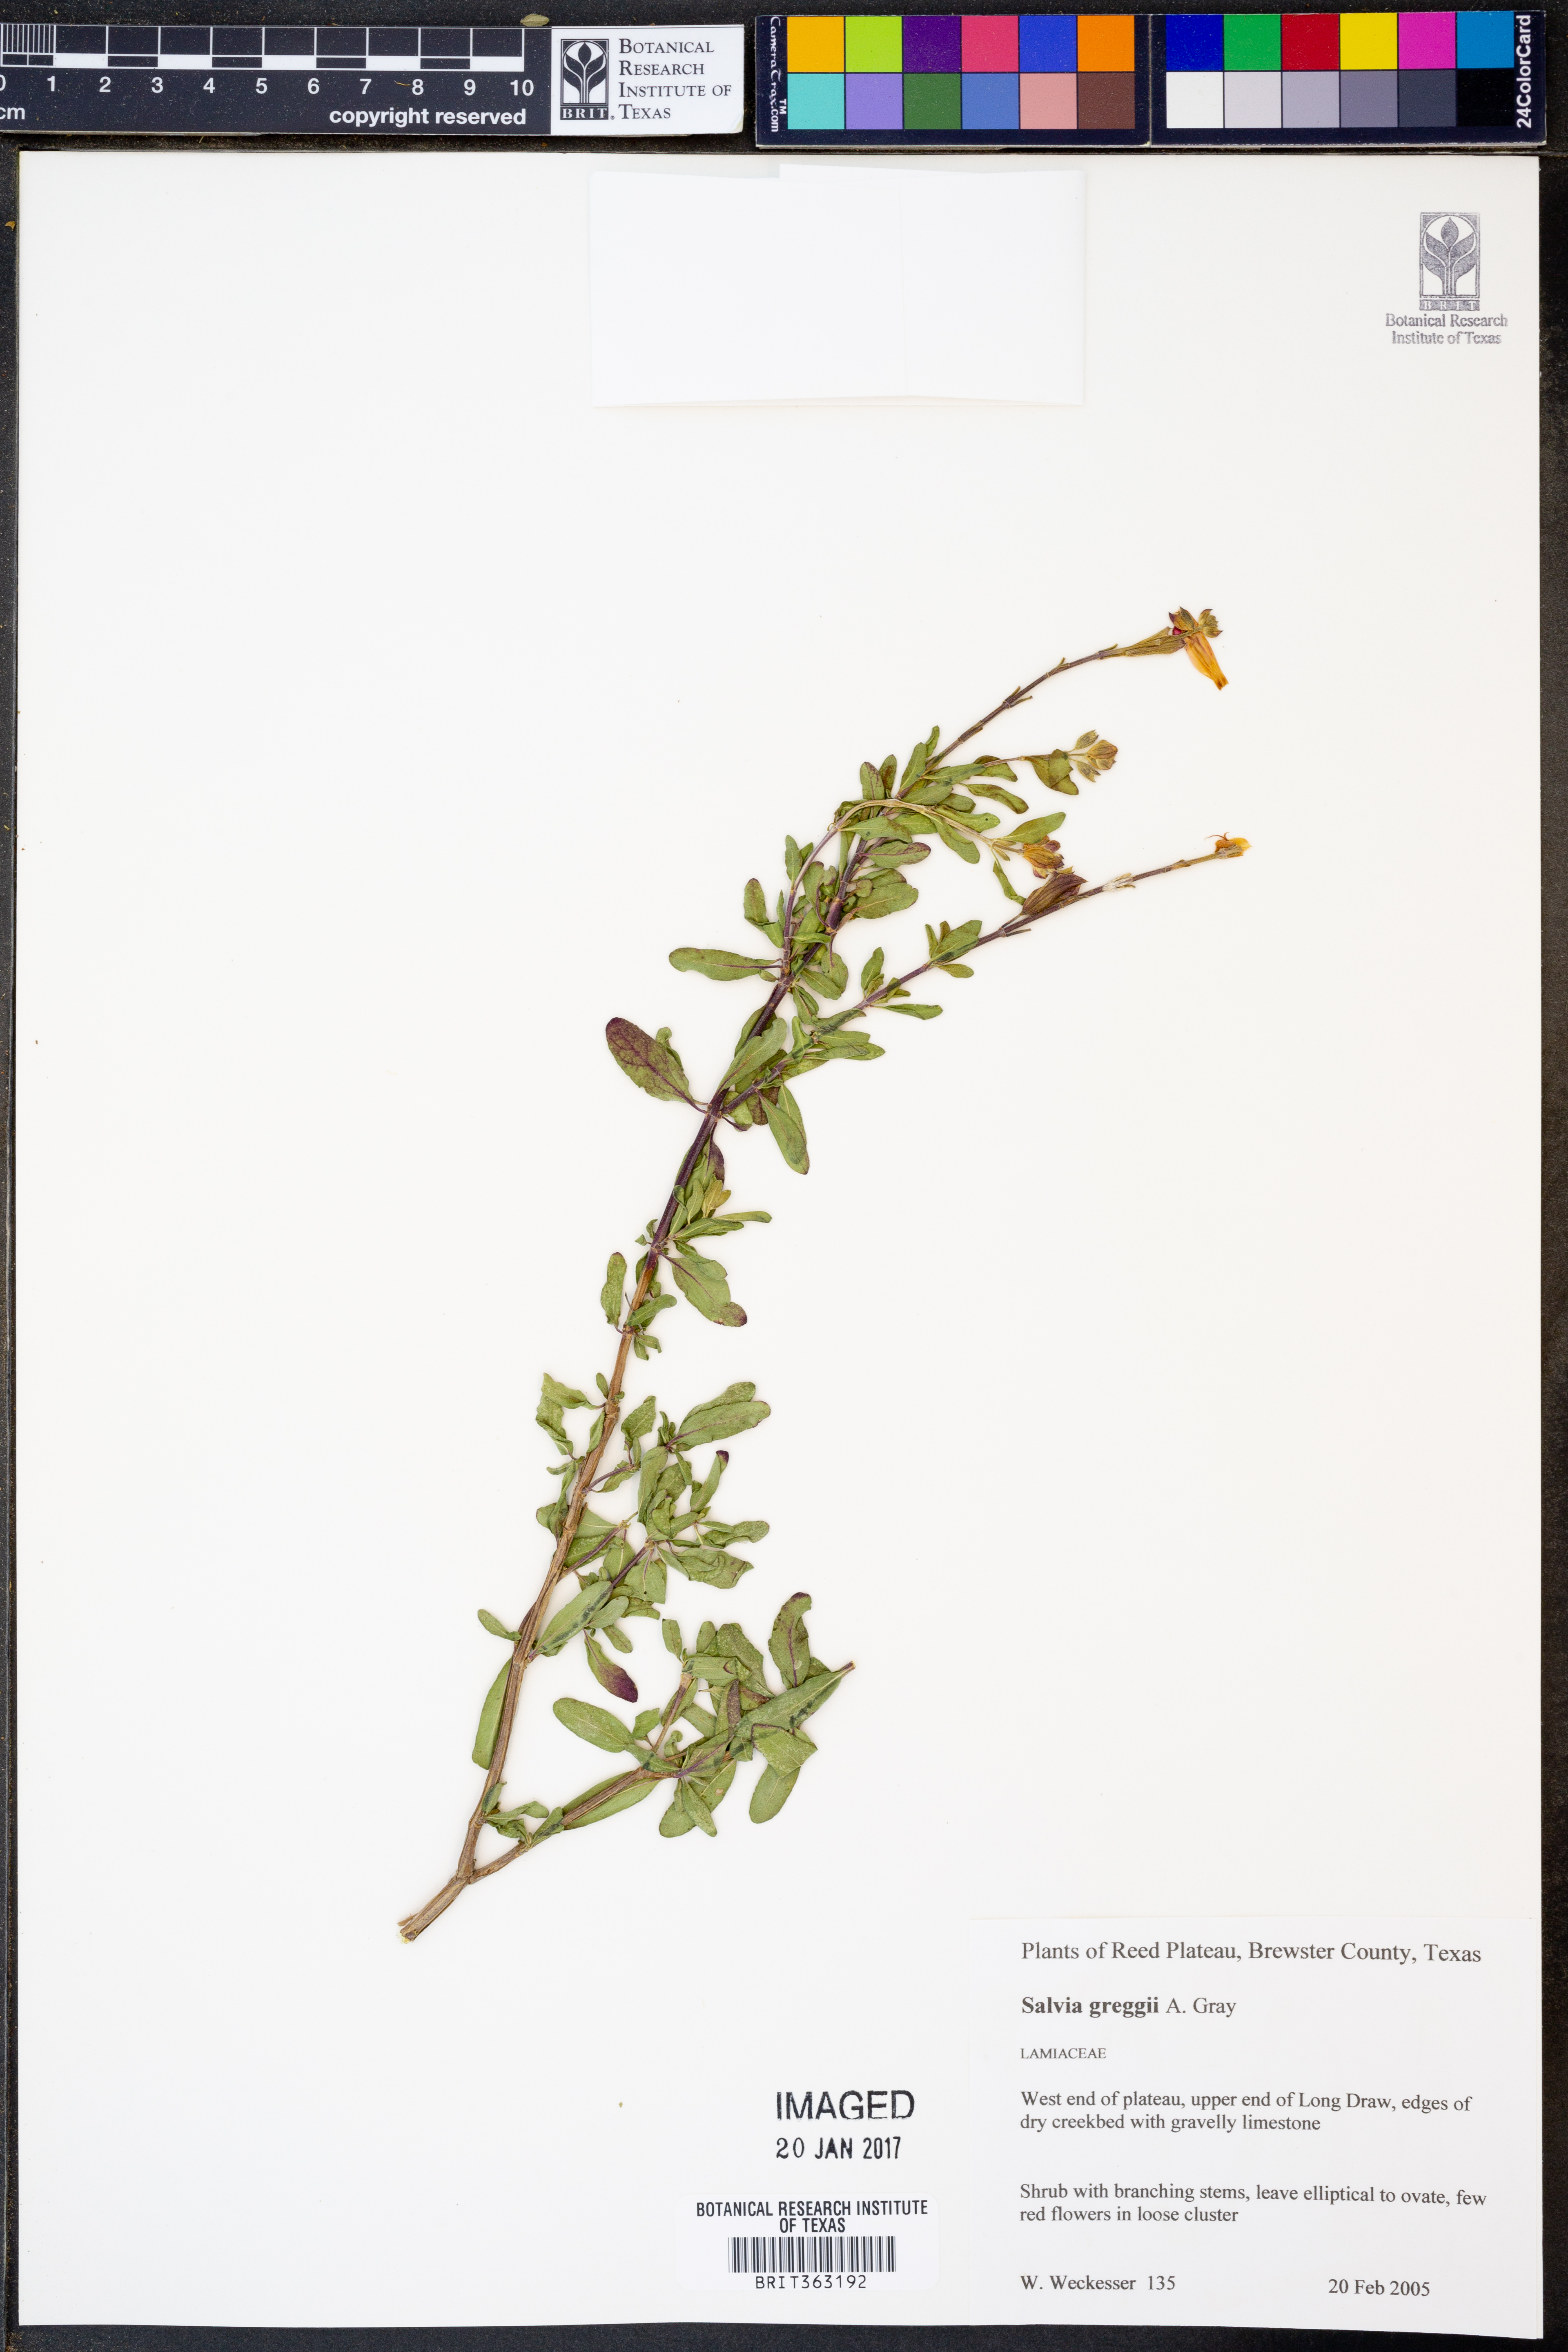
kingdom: Plantae
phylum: Tracheophyta
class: Magnoliopsida
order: Lamiales
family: Lamiaceae
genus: Salvia
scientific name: Salvia greggii
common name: Autumn sage
